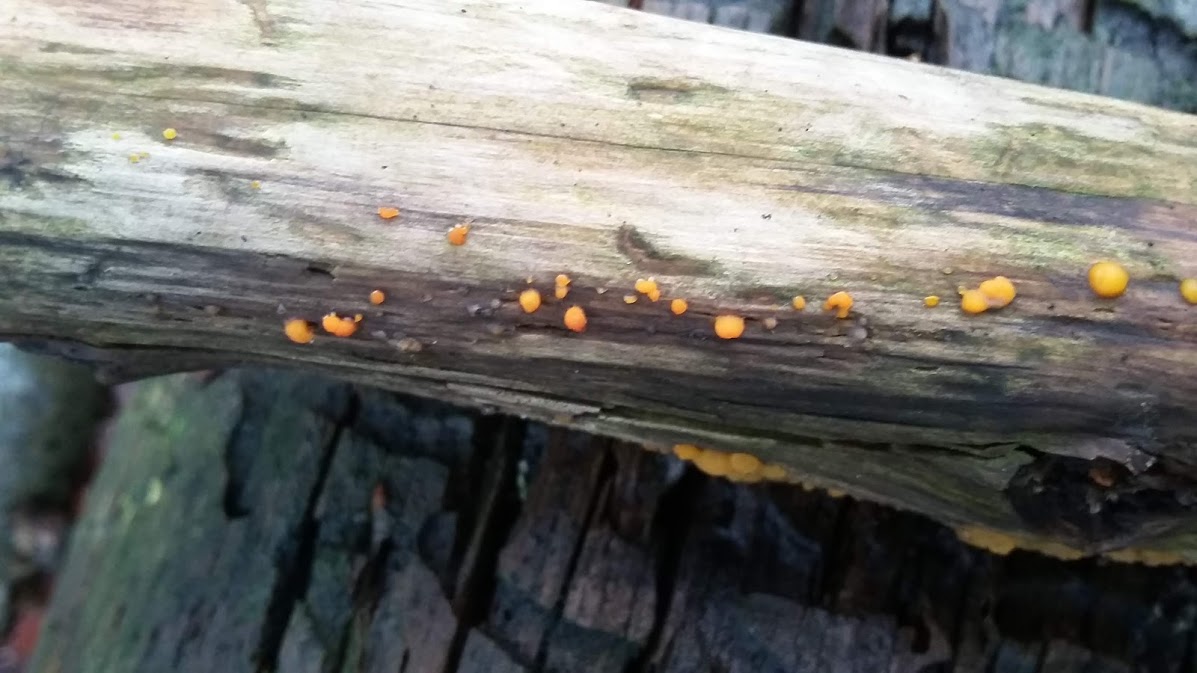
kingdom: Fungi
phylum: Basidiomycota
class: Dacrymycetes
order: Dacrymycetales
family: Dacrymycetaceae
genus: Dacrymyces
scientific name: Dacrymyces stillatus
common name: almindelig tåresvamp
